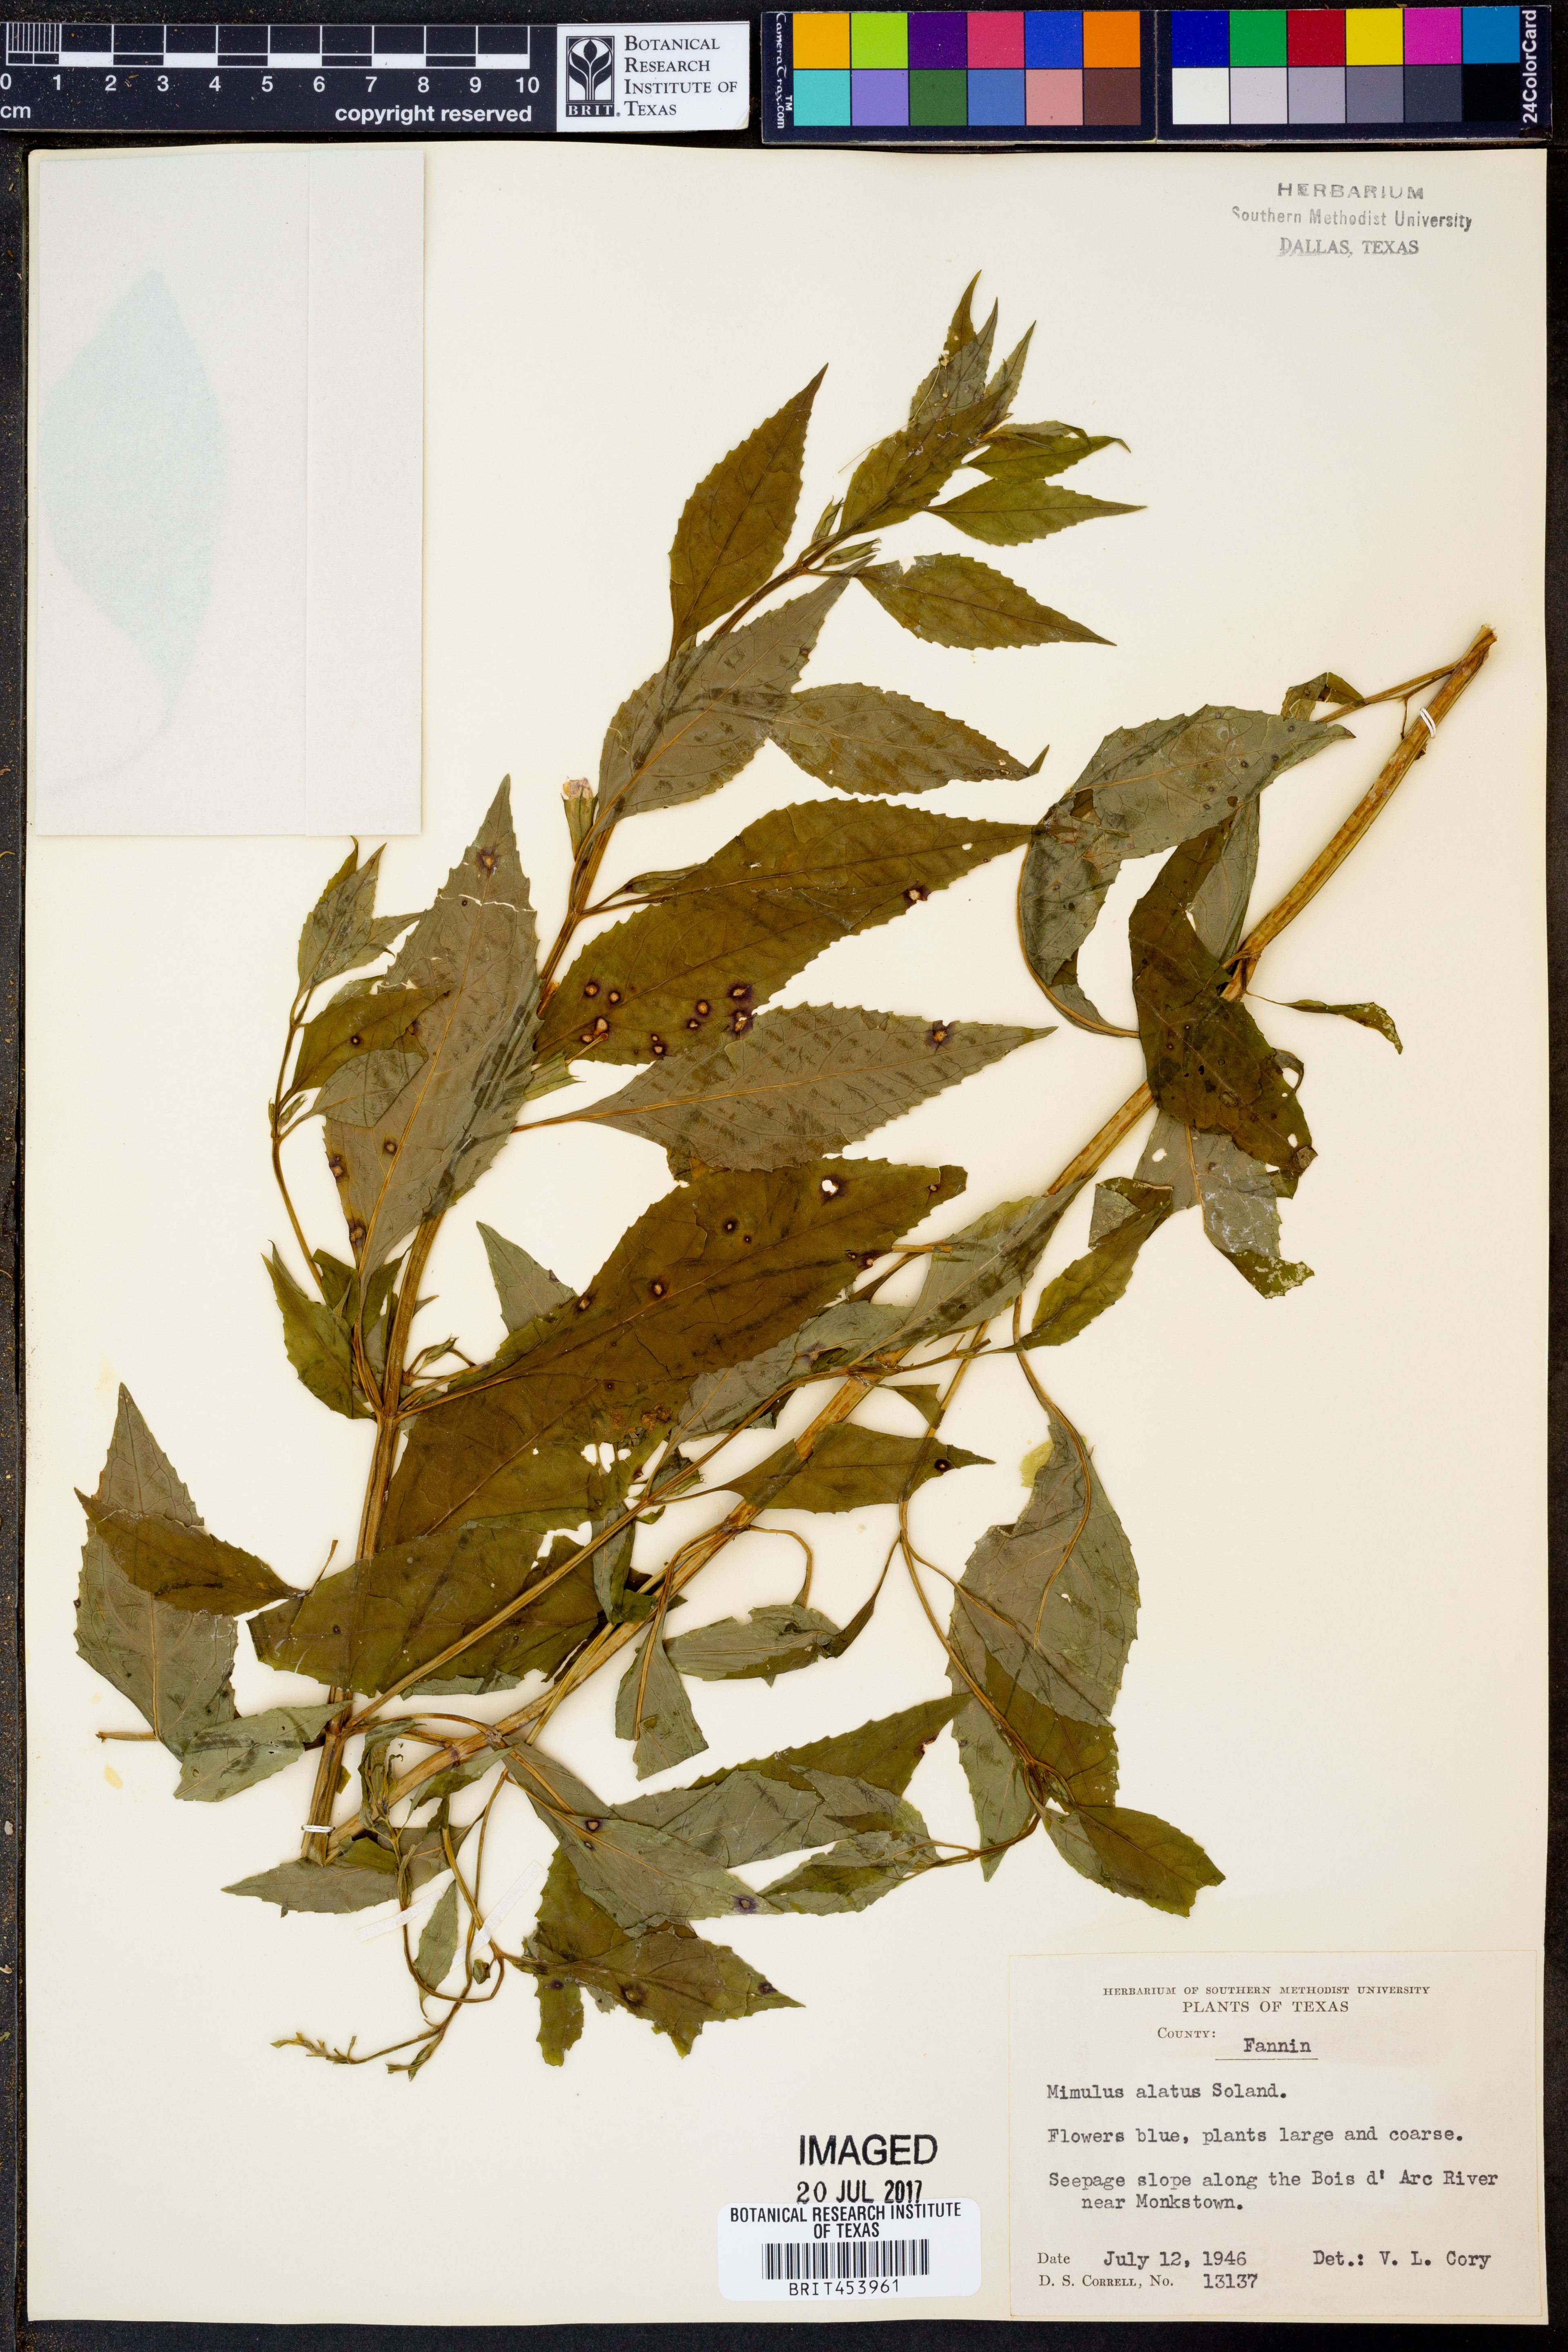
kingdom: Plantae
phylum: Tracheophyta
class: Magnoliopsida
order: Lamiales
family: Phrymaceae
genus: Mimulus
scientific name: Mimulus alatus
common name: Sharp-wing monkey-flower
